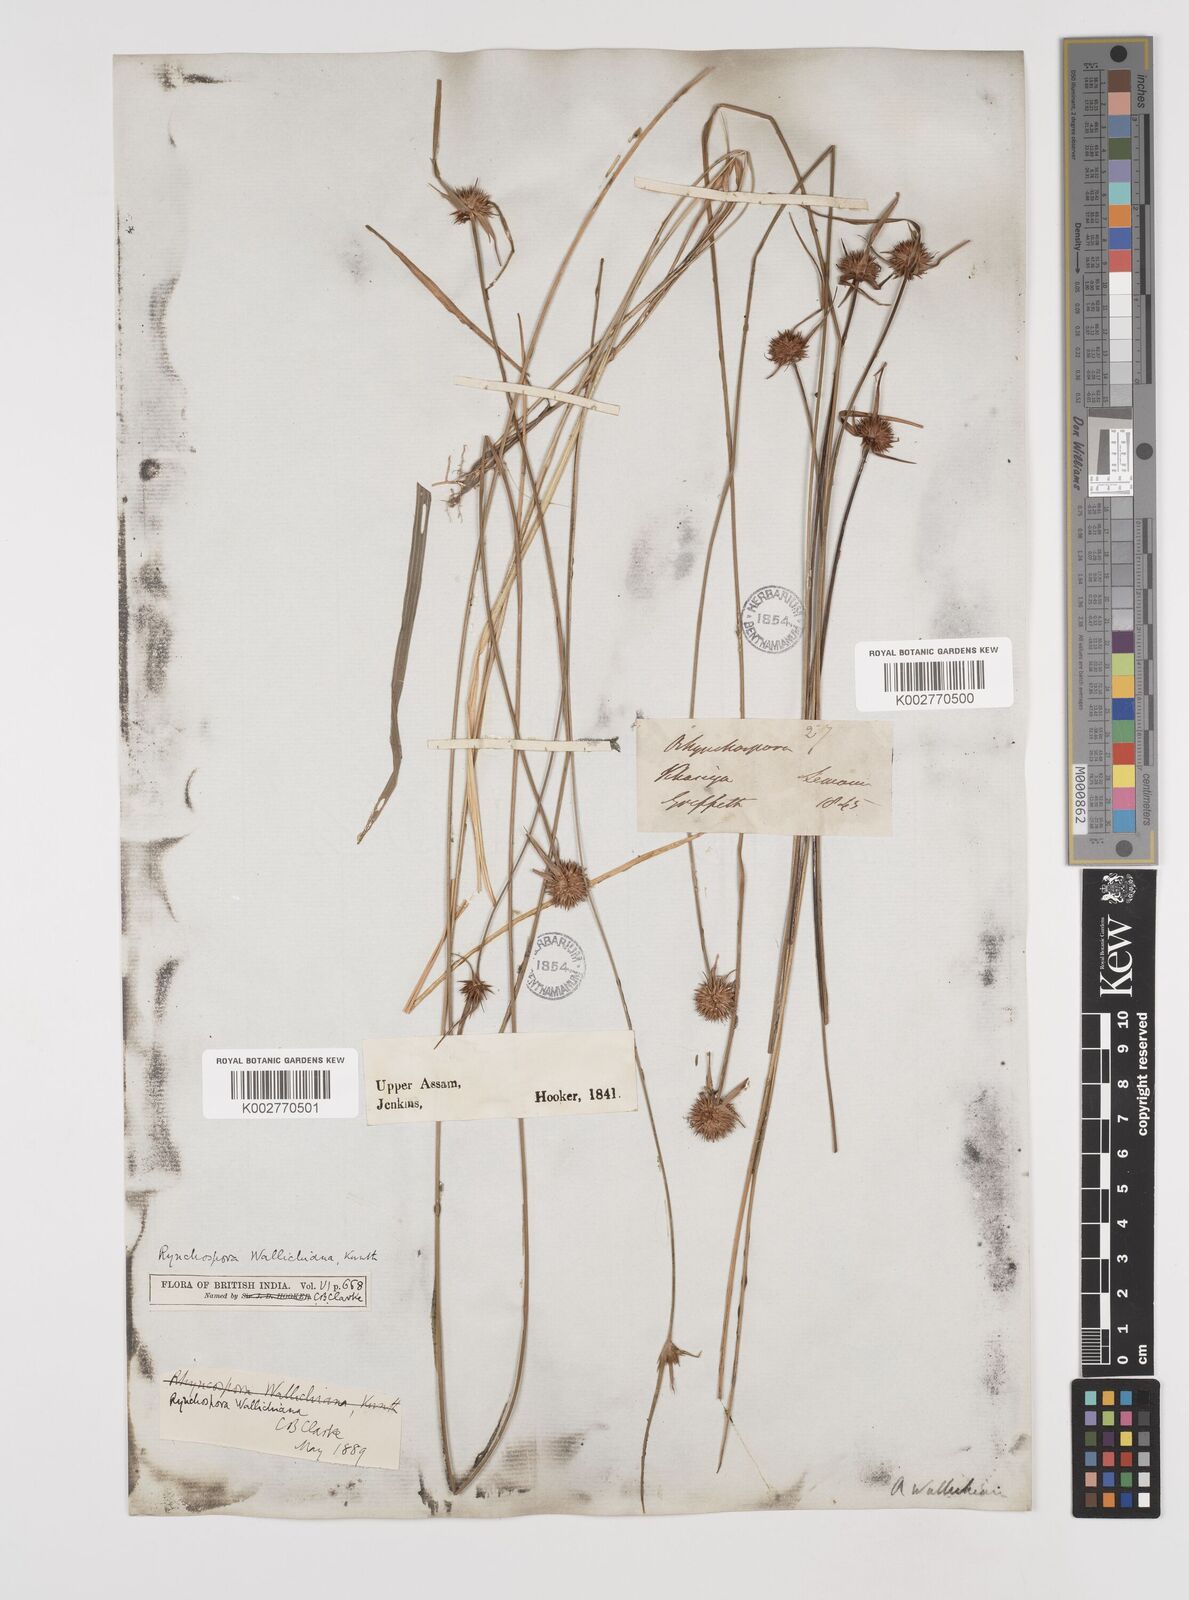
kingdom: Plantae
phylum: Tracheophyta
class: Liliopsida
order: Poales
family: Cyperaceae
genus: Rhynchospora
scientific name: Rhynchospora rubra
